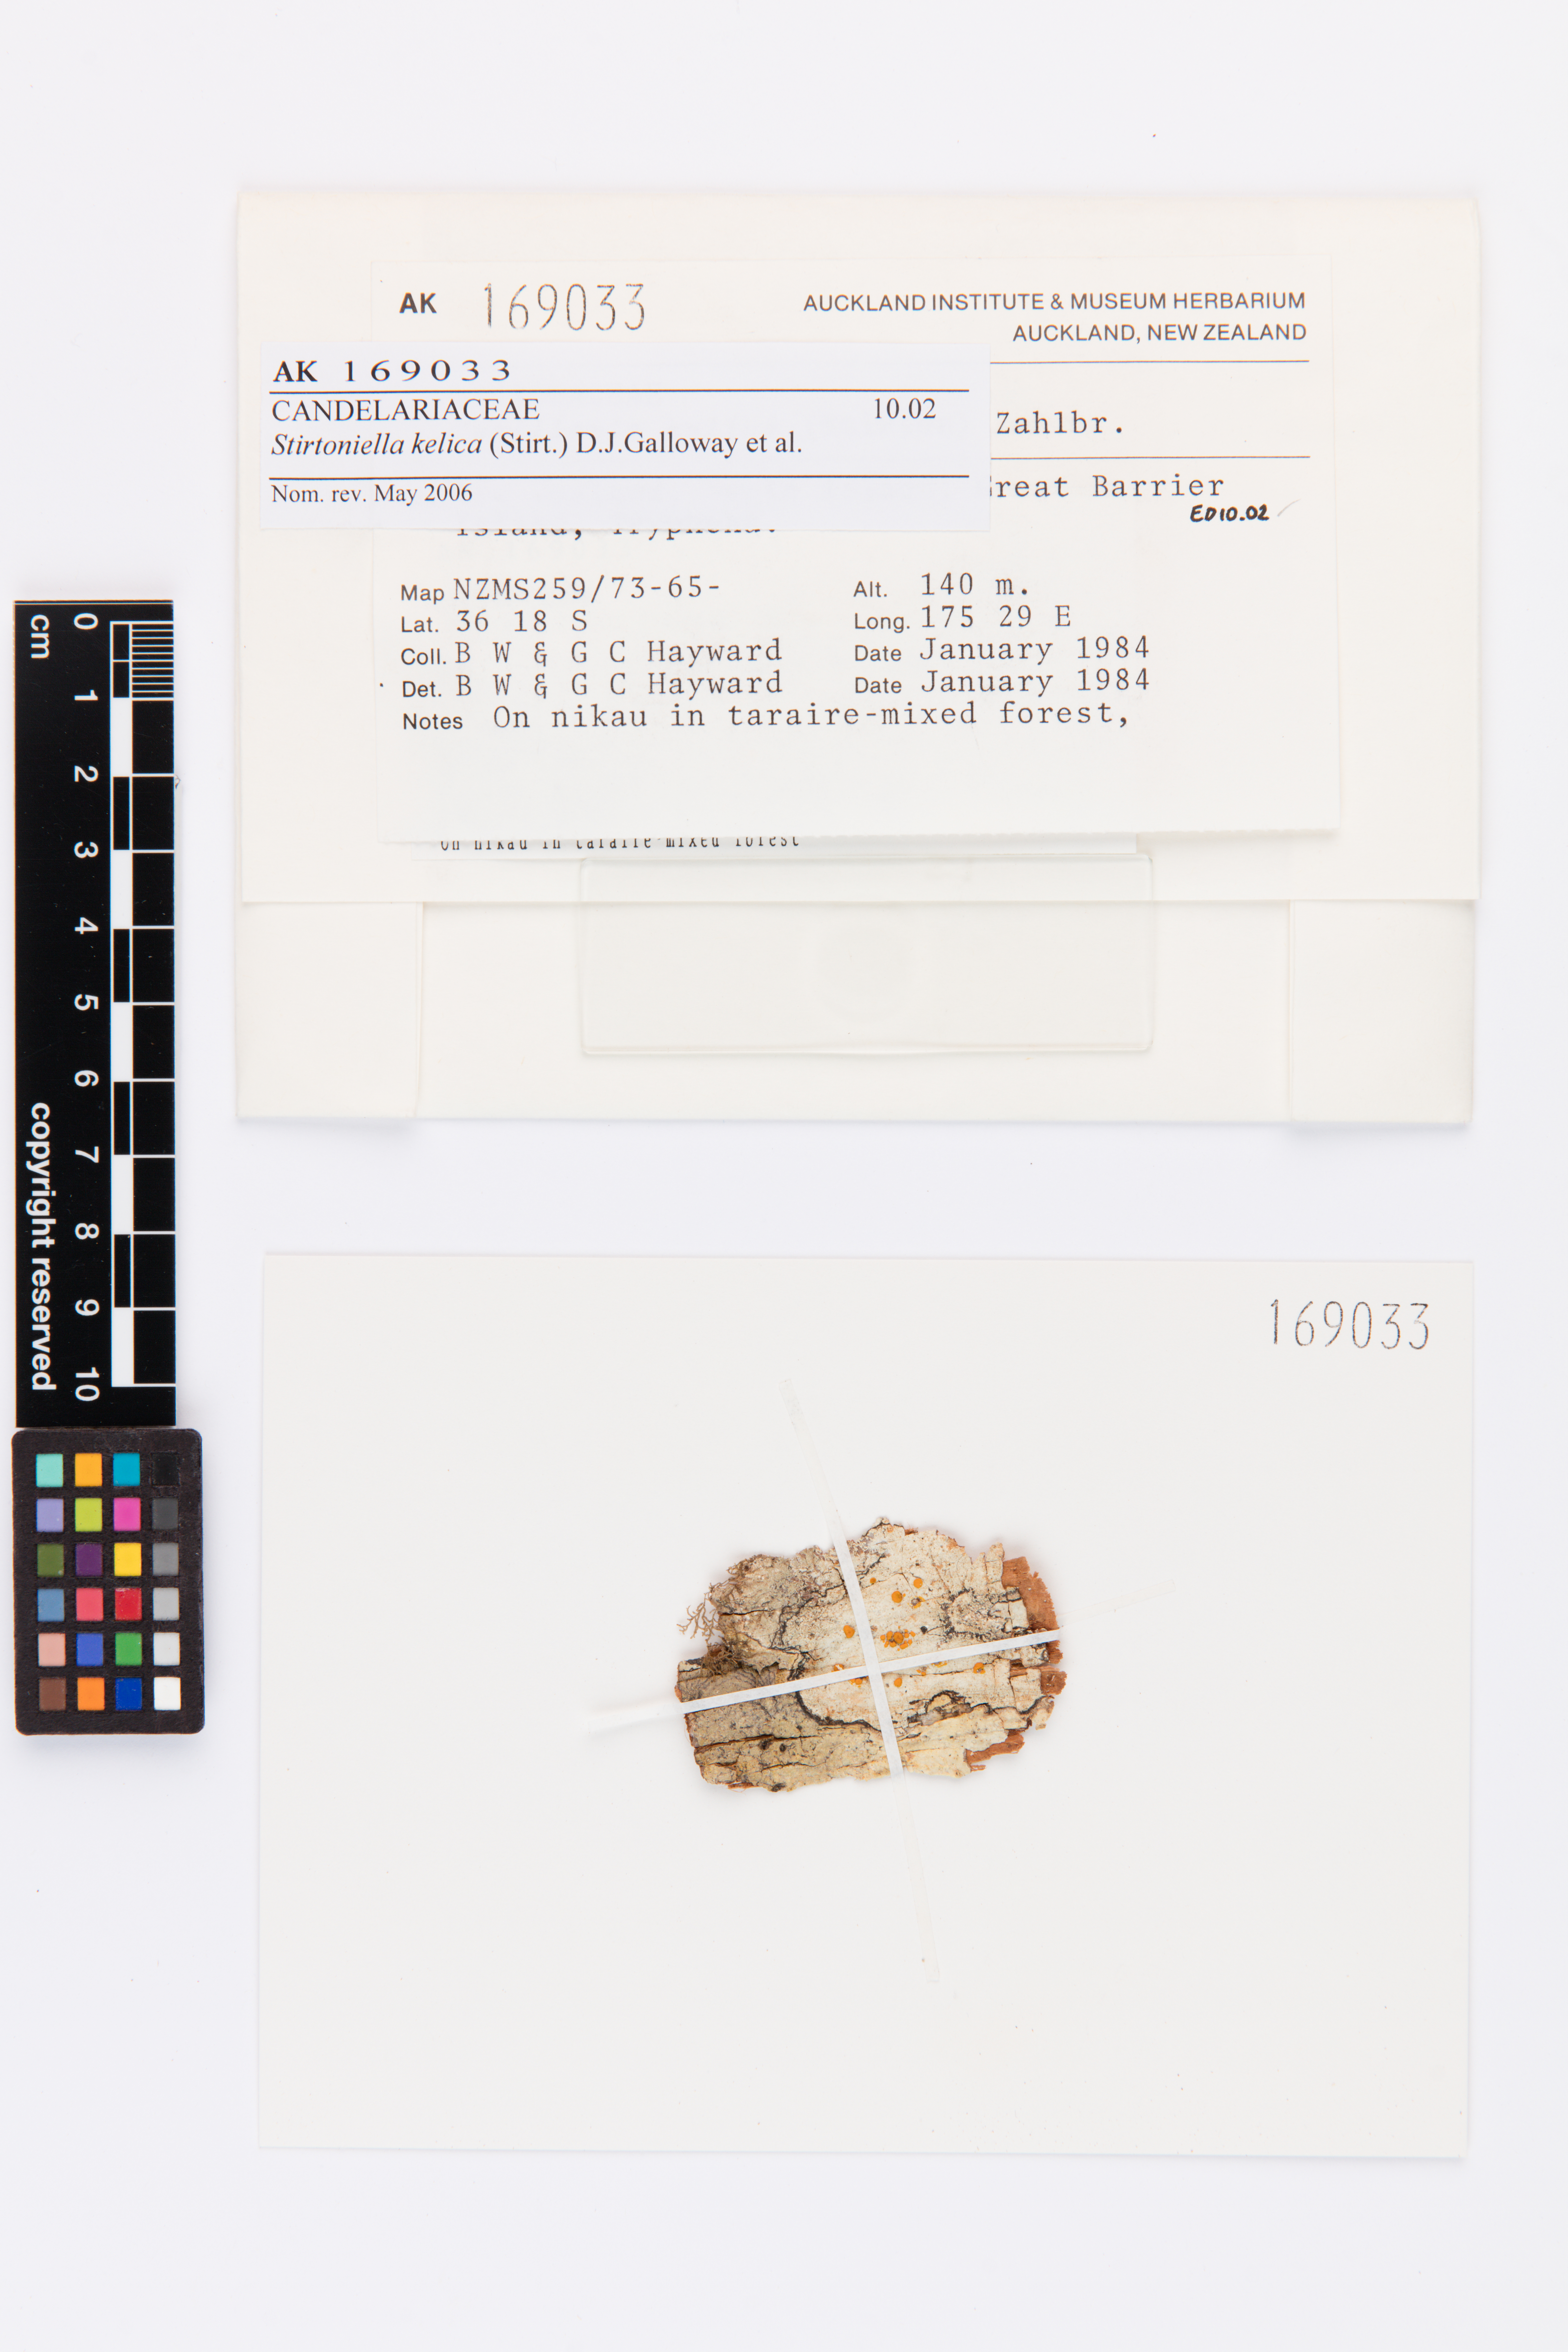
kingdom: Fungi
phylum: Ascomycota
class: Lecanoromycetes
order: Lecanorales
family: Ramalinaceae
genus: Stirtoniella
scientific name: Stirtoniella kelica
